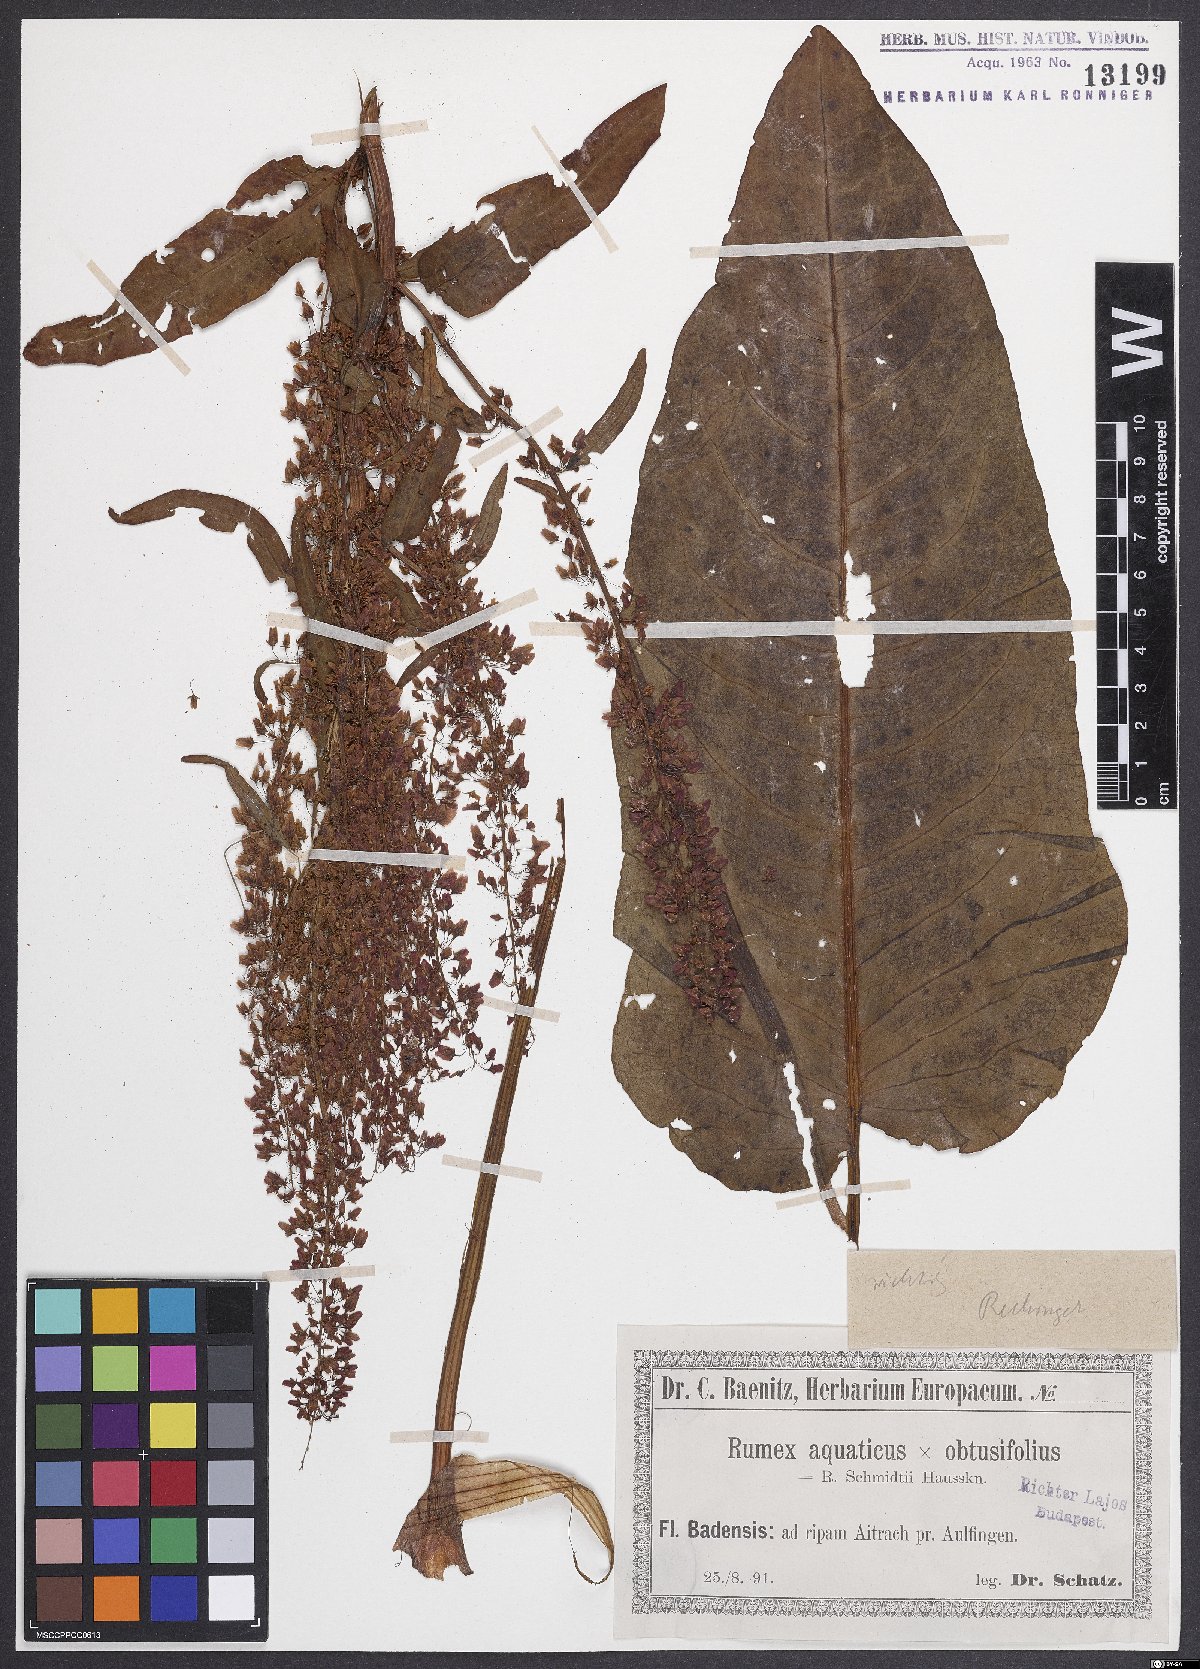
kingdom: Plantae
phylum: Tracheophyta
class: Magnoliopsida
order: Caryophyllales
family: Polygonaceae
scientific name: Polygonaceae
